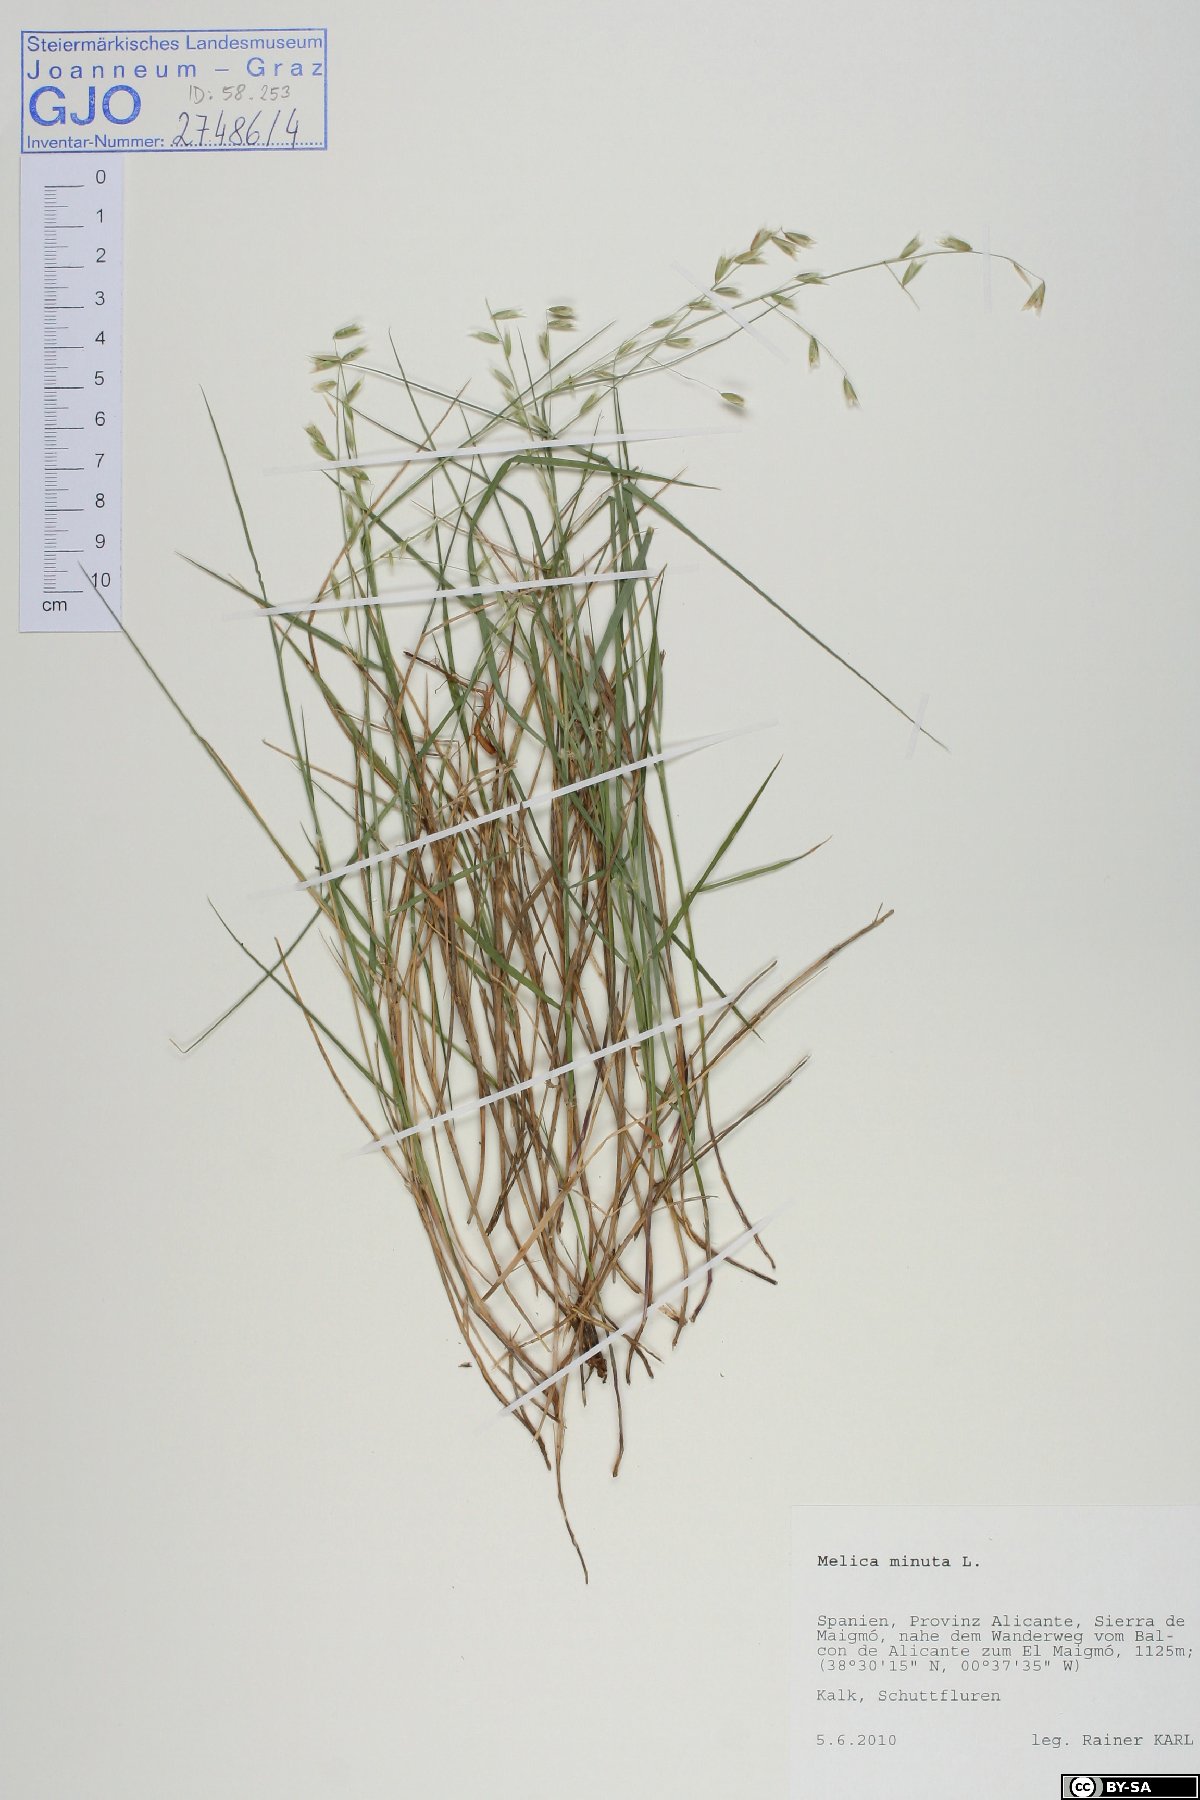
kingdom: Plantae
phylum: Tracheophyta
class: Liliopsida
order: Poales
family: Poaceae
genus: Melica
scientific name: Melica minuta
